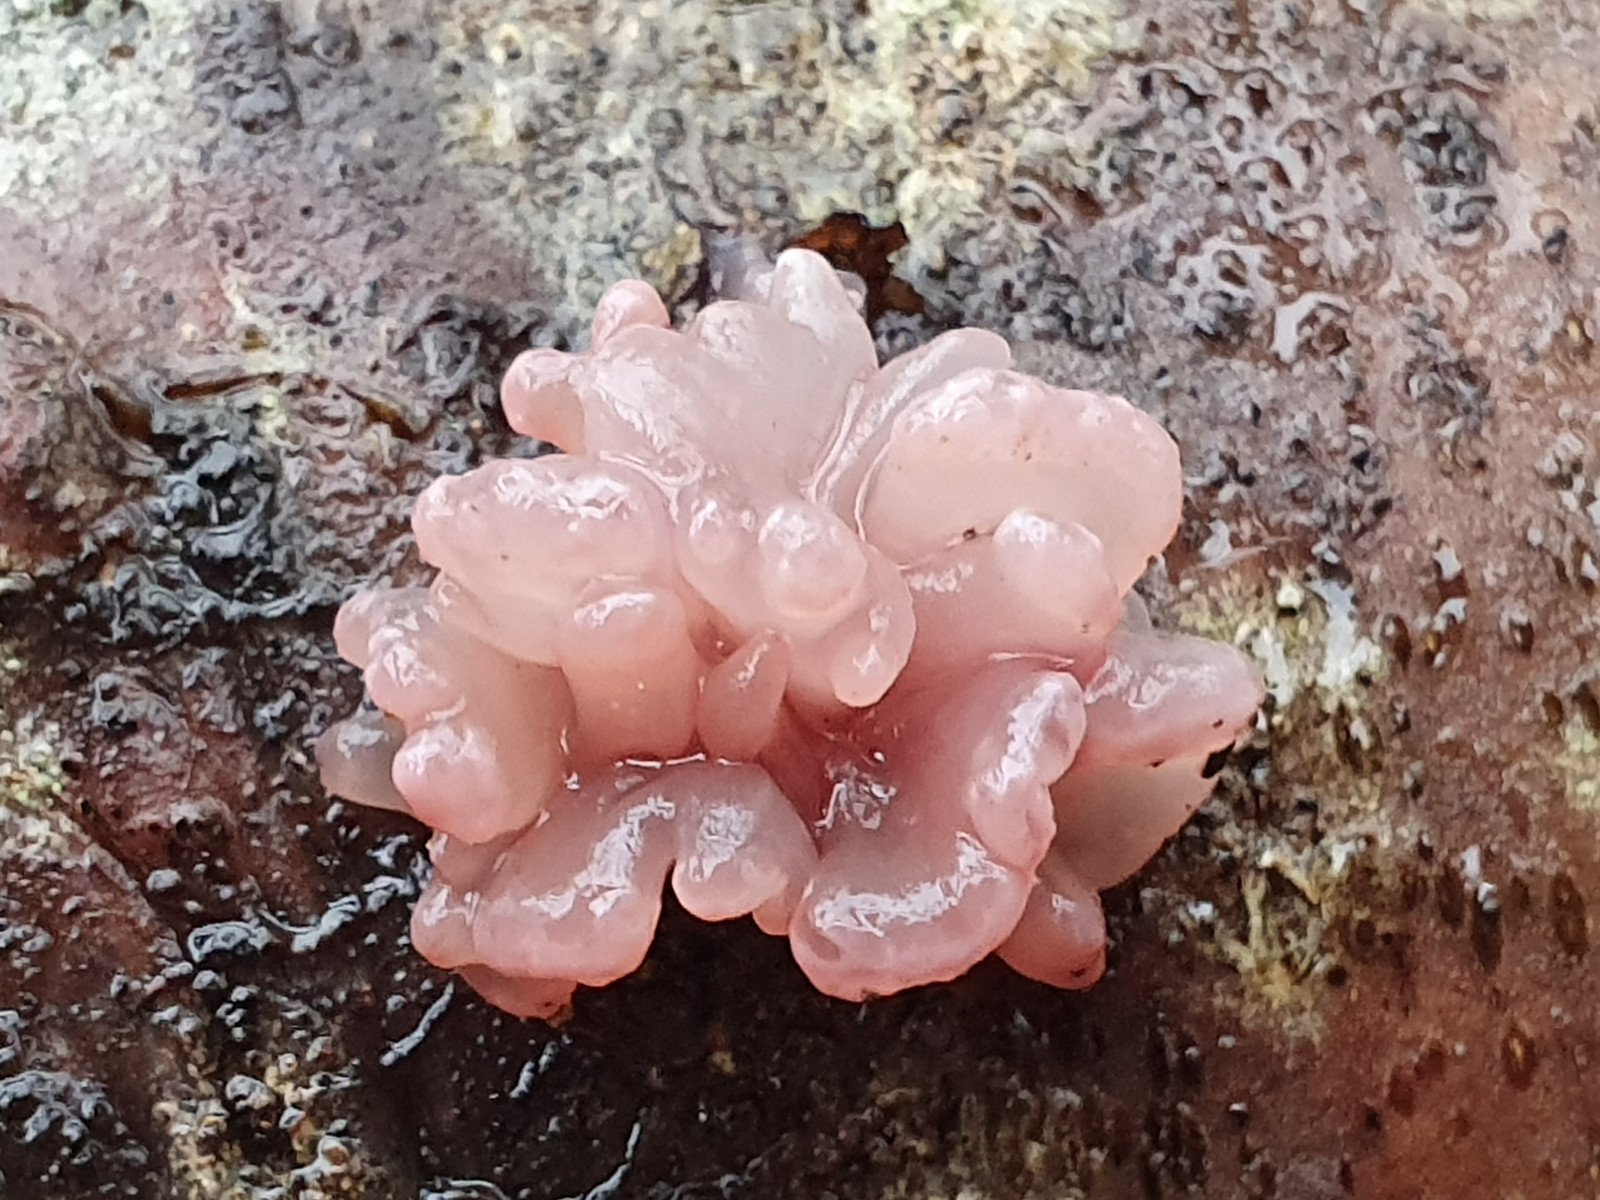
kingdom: Fungi
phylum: Ascomycota
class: Leotiomycetes
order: Helotiales
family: Gelatinodiscaceae
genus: Ascocoryne
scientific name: Ascocoryne sarcoides
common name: rødlilla sejskive
